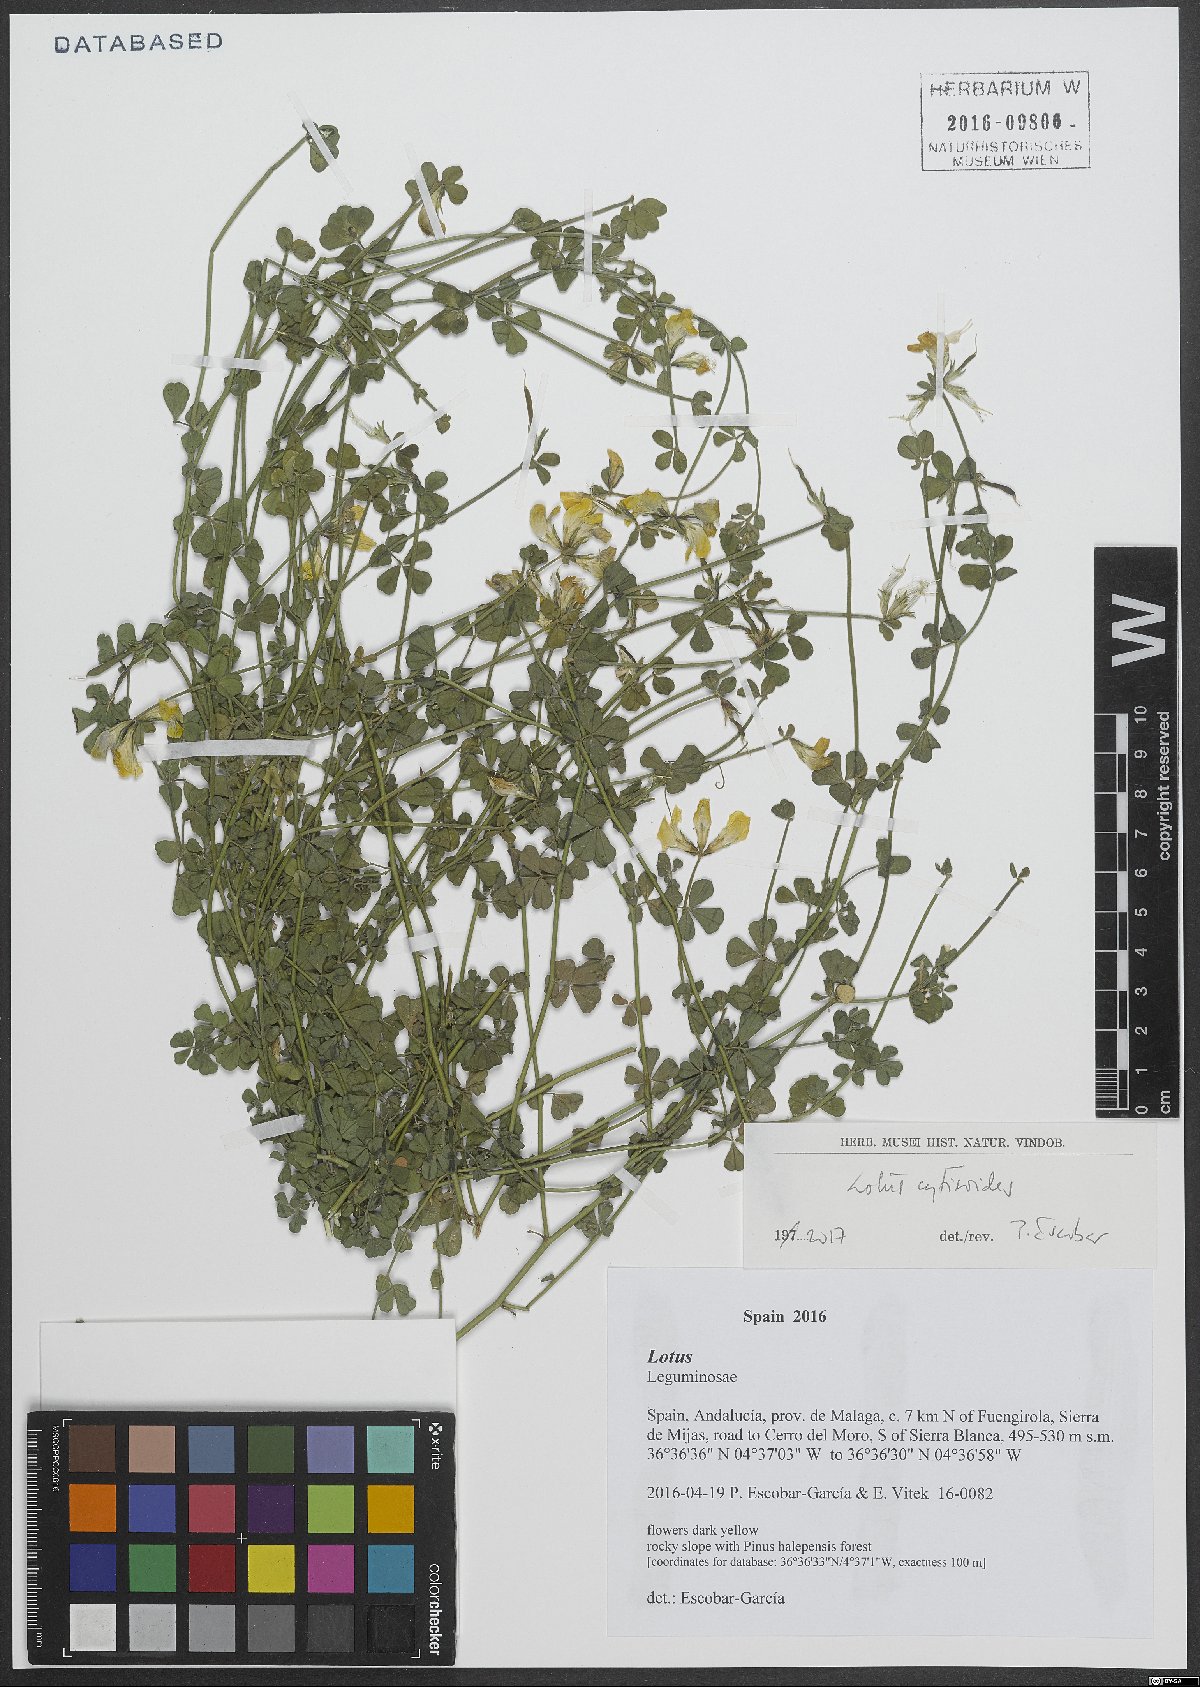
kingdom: Plantae
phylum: Tracheophyta
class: Magnoliopsida
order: Fabales
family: Fabaceae
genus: Lotus
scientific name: Lotus cytisoides
